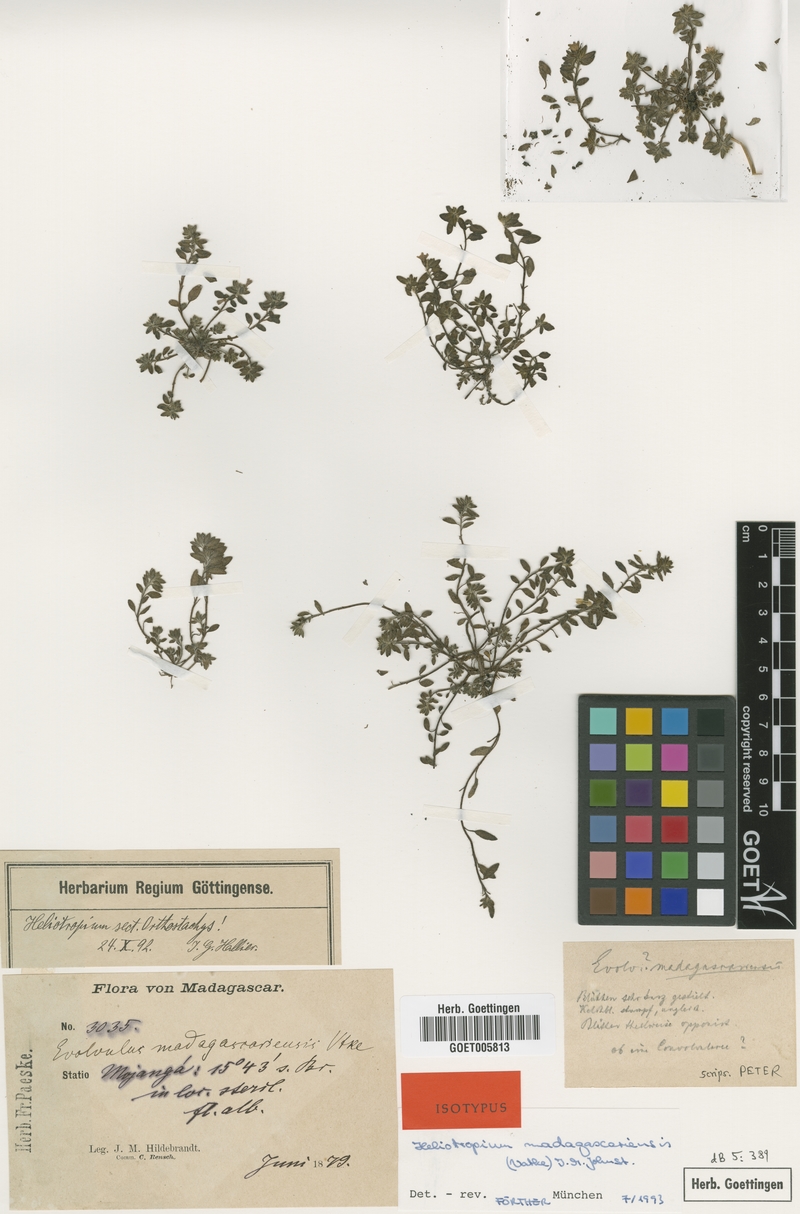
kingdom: Plantae
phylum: Tracheophyta
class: Magnoliopsida
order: Boraginales
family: Heliotropiaceae
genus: Euploca
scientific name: Euploca madagascariensis
